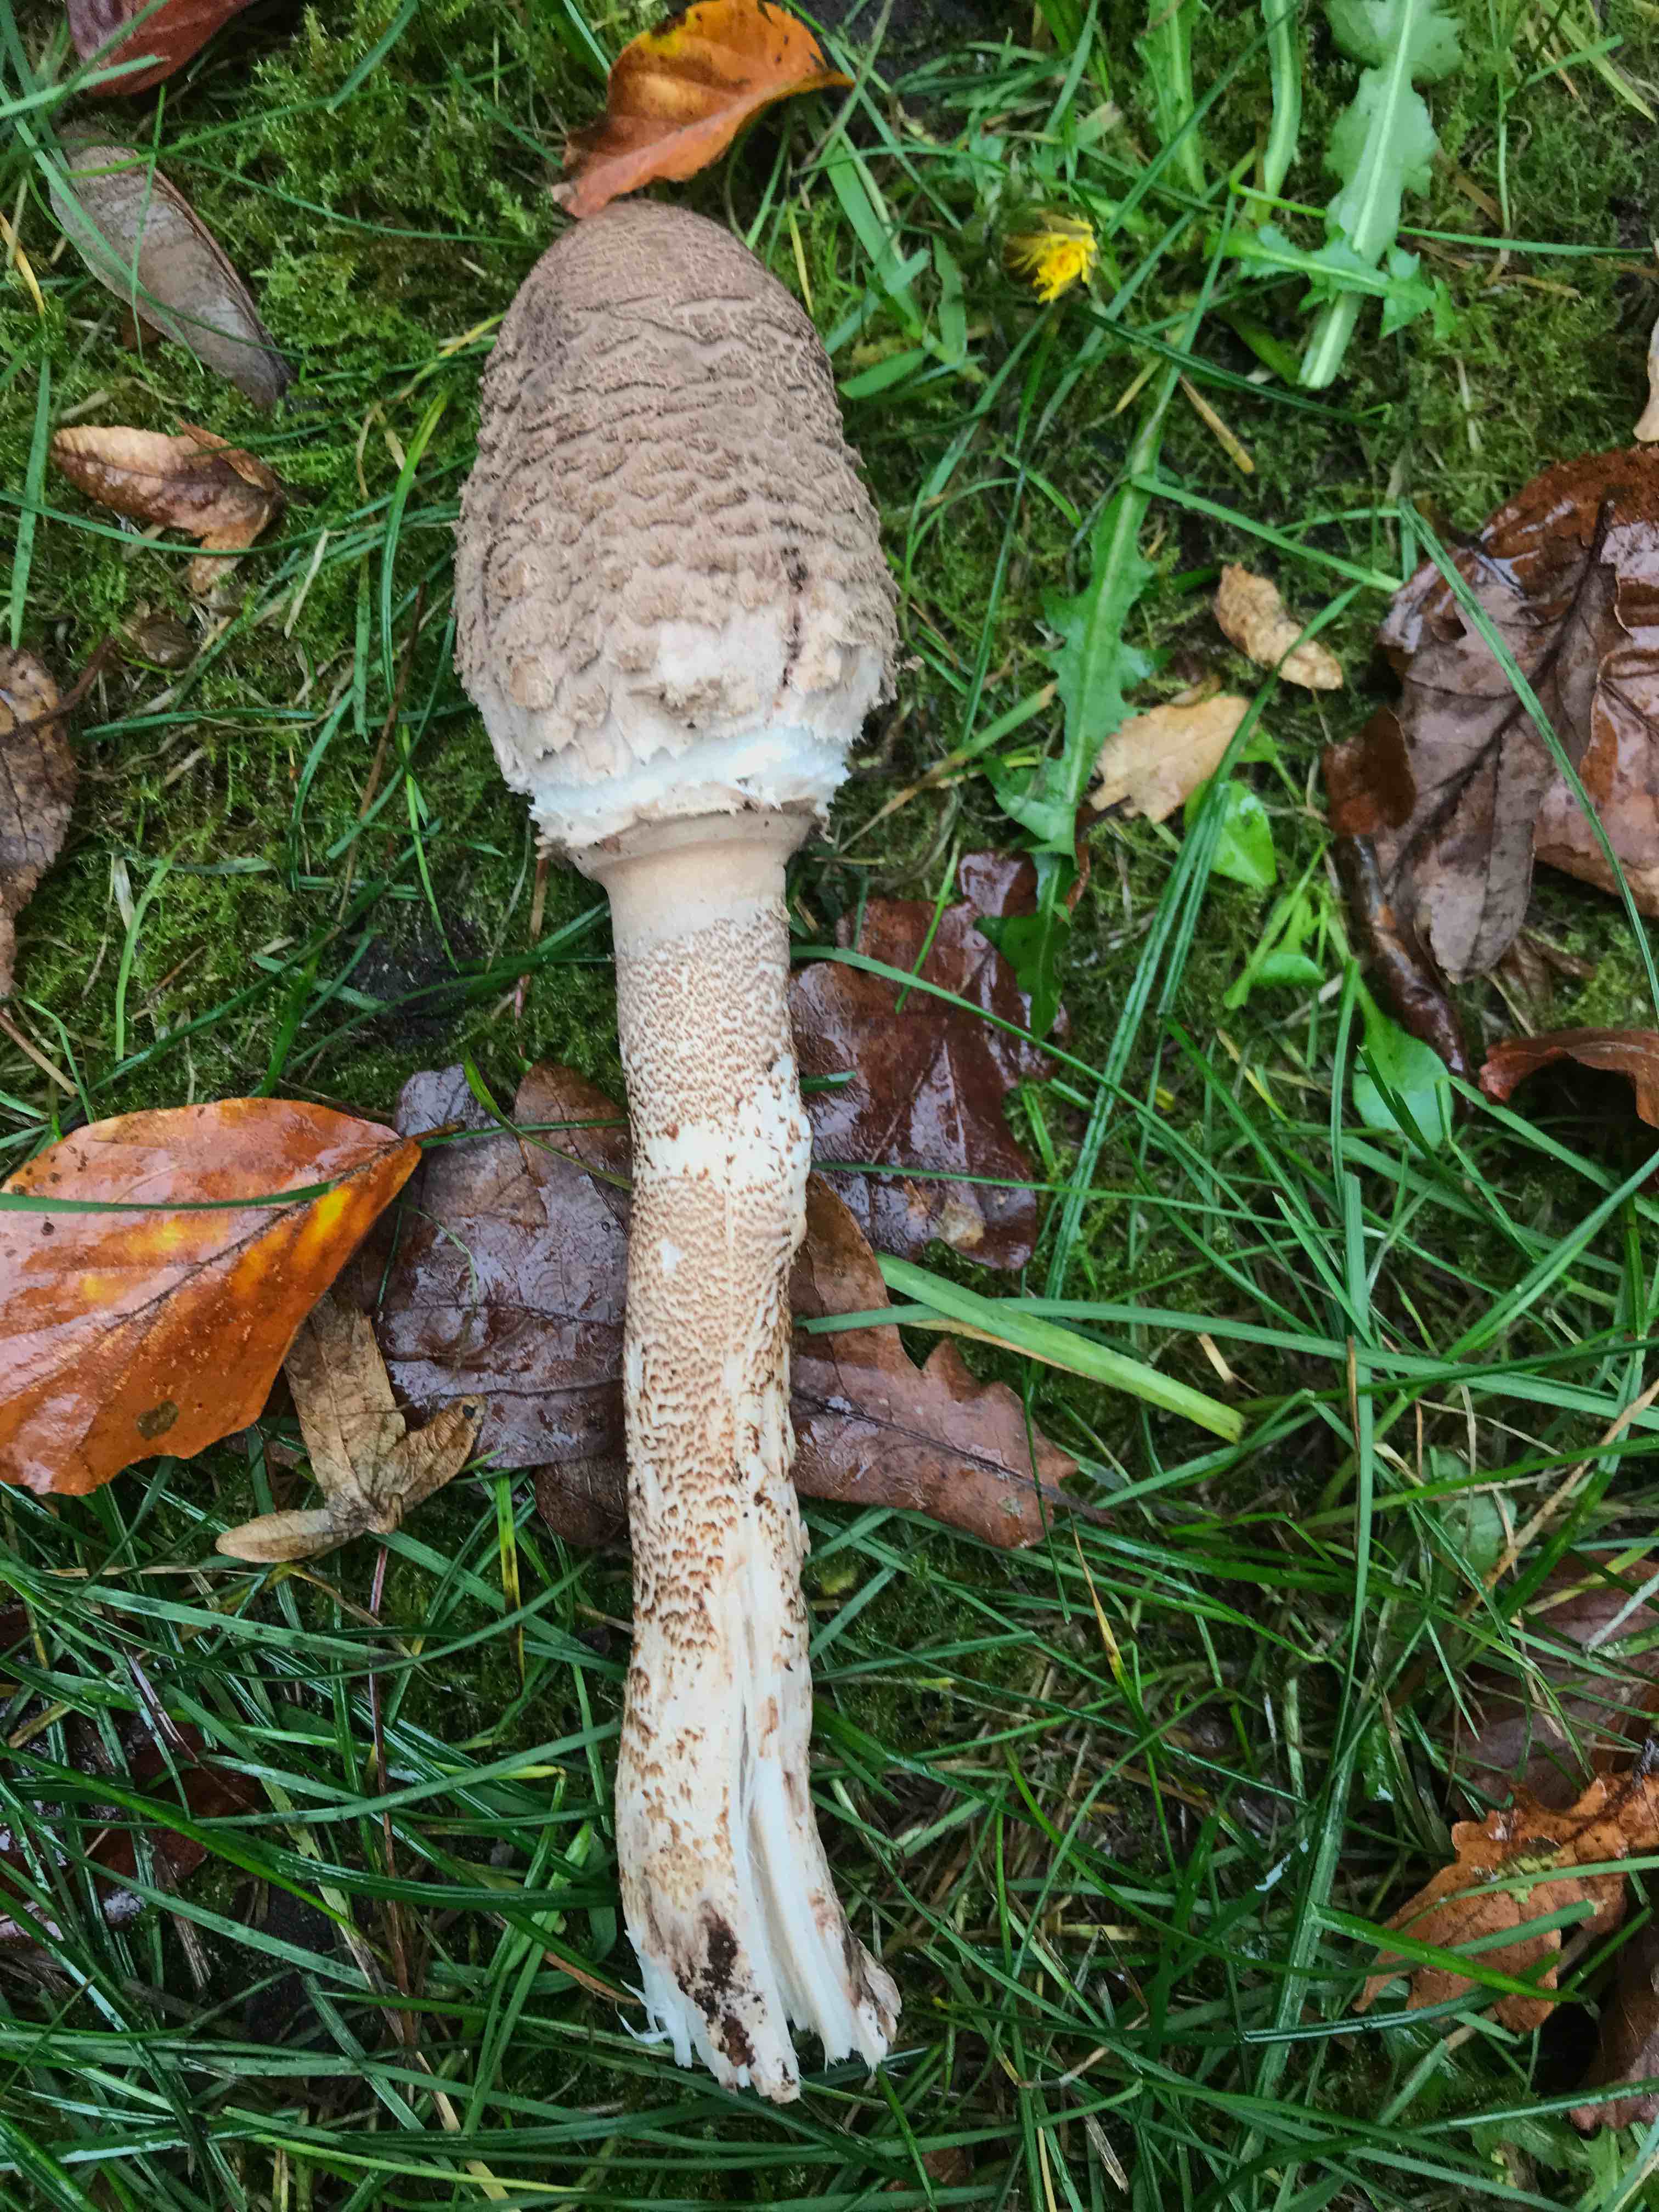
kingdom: Fungi
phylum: Basidiomycota
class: Agaricomycetes
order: Agaricales
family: Agaricaceae
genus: Macrolepiota
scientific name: Macrolepiota procera
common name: stor kæmpeparasolhat
